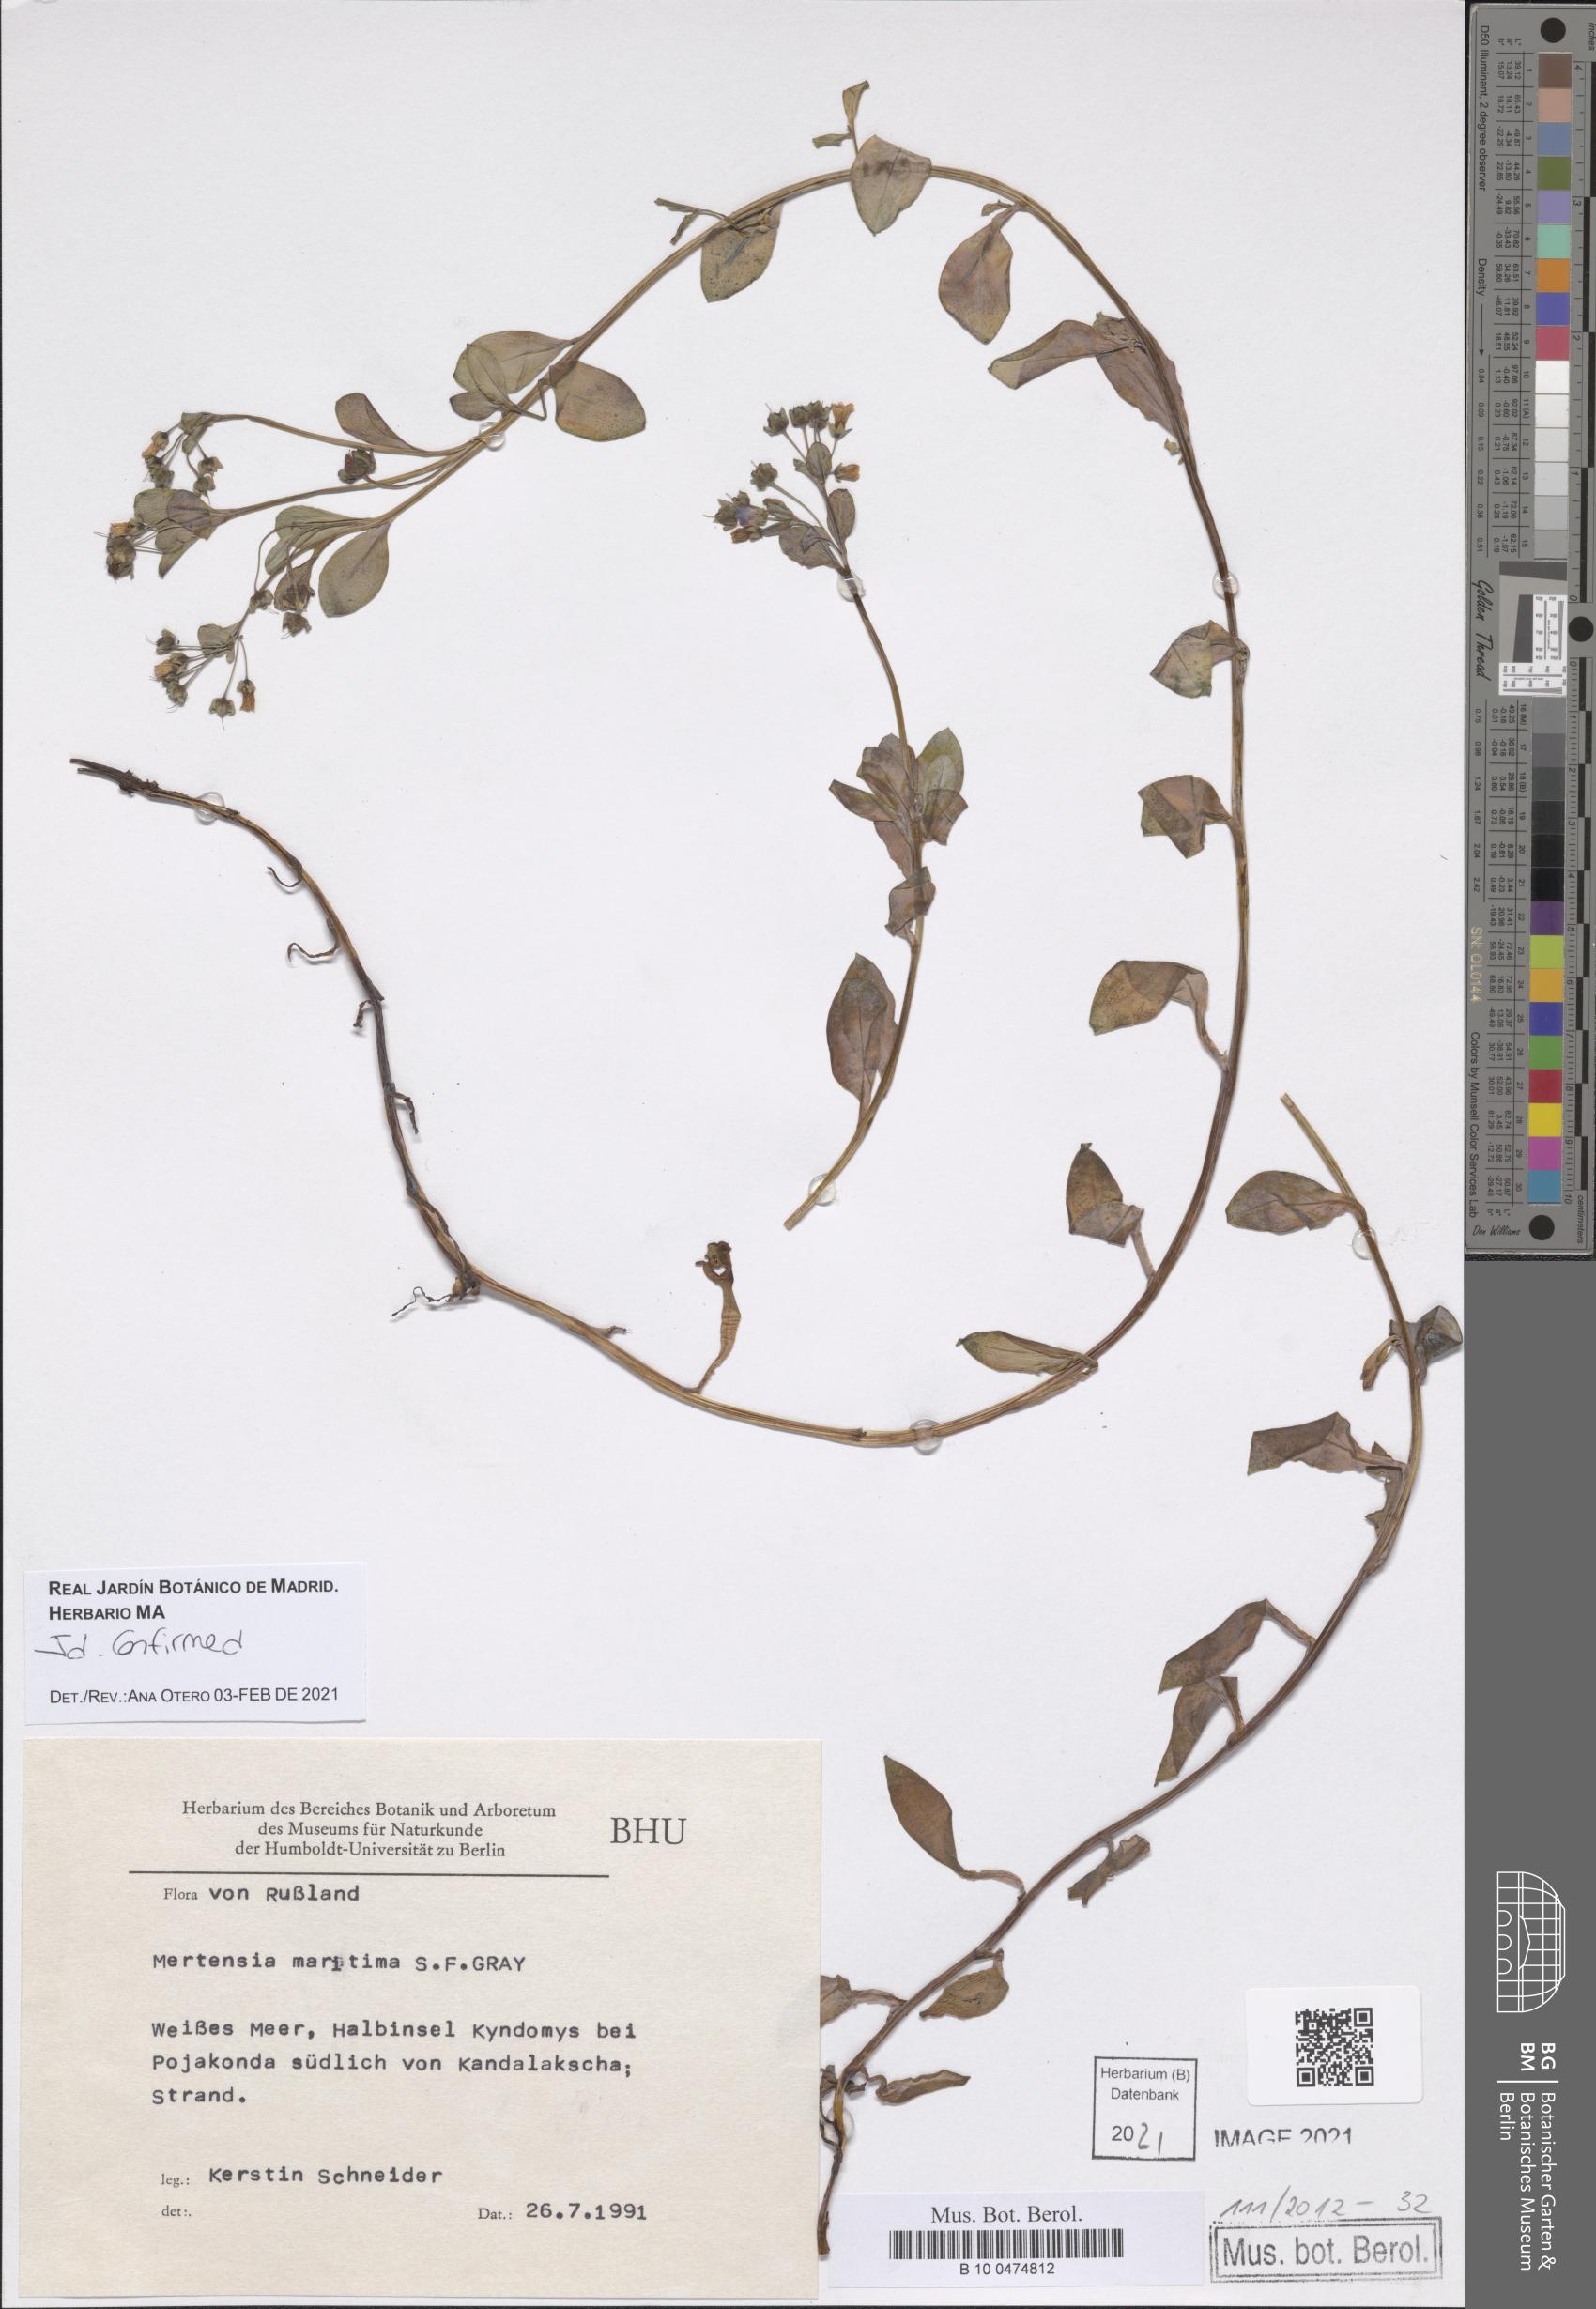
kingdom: Plantae
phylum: Tracheophyta
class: Magnoliopsida
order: Boraginales
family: Boraginaceae
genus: Mertensia
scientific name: Mertensia maritima
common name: Oysterplant
